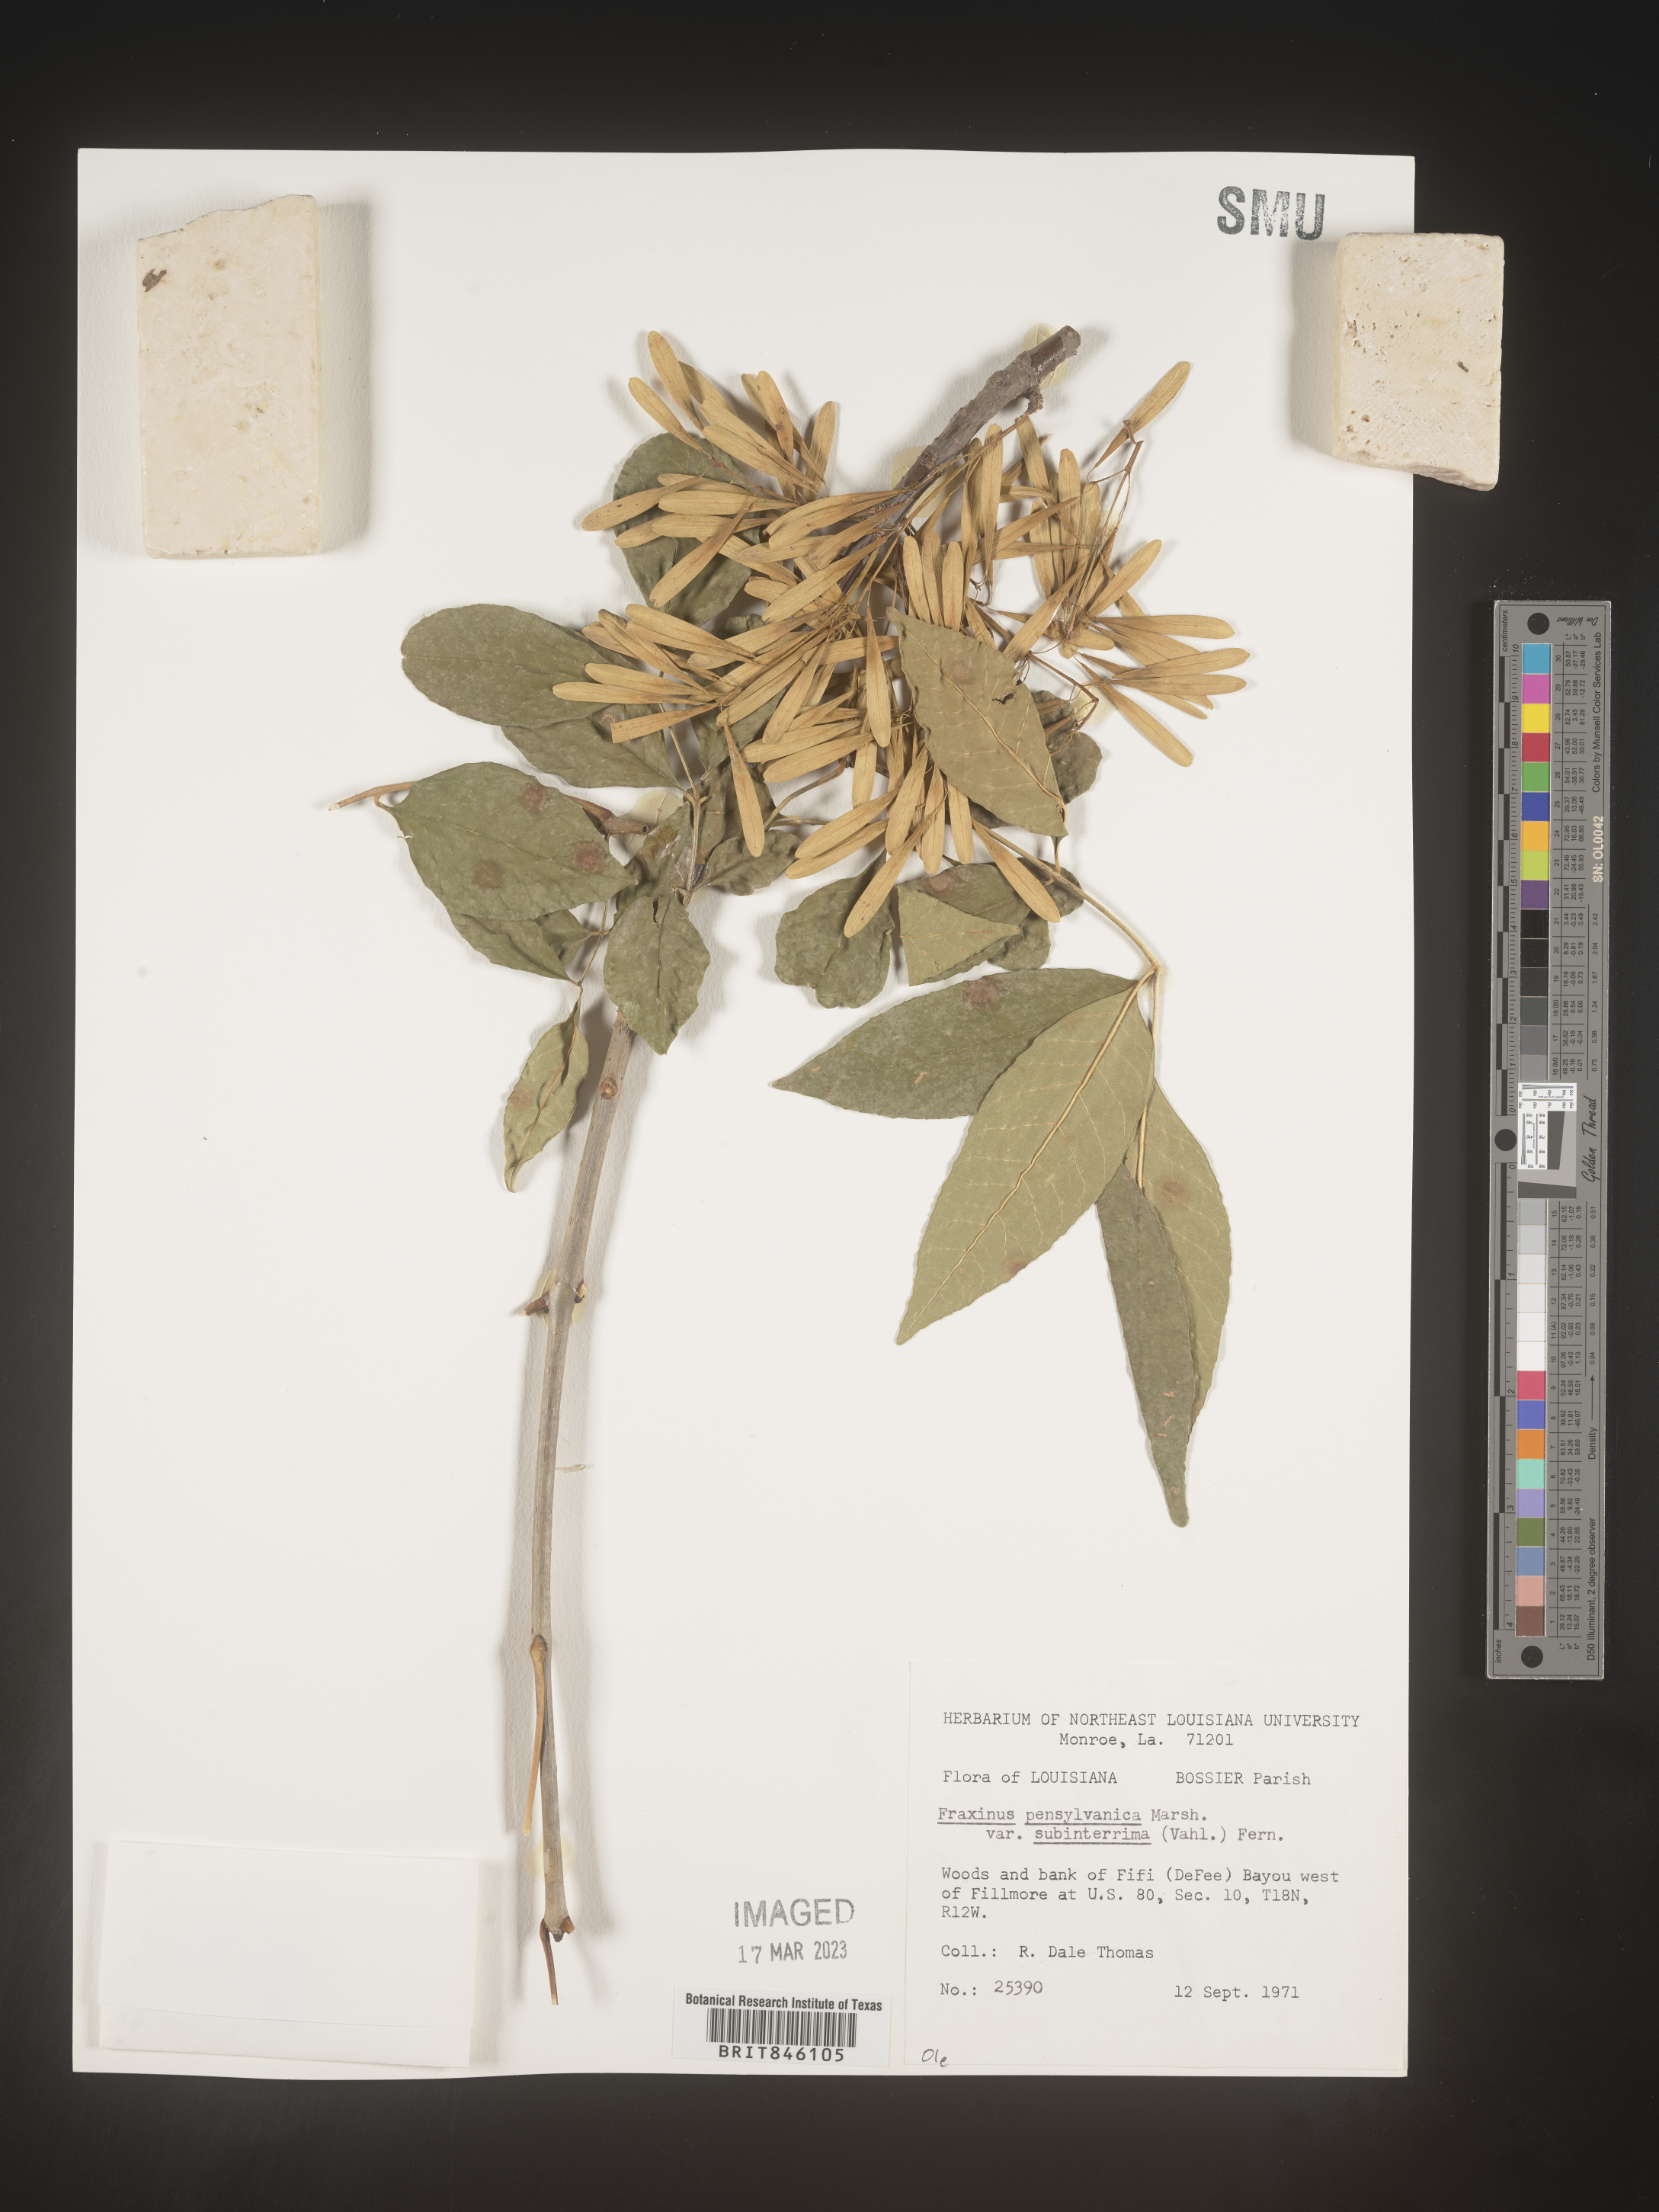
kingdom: Plantae
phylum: Tracheophyta
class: Magnoliopsida
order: Lamiales
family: Oleaceae
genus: Fraxinus
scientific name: Fraxinus pennsylvanica
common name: Green ash
